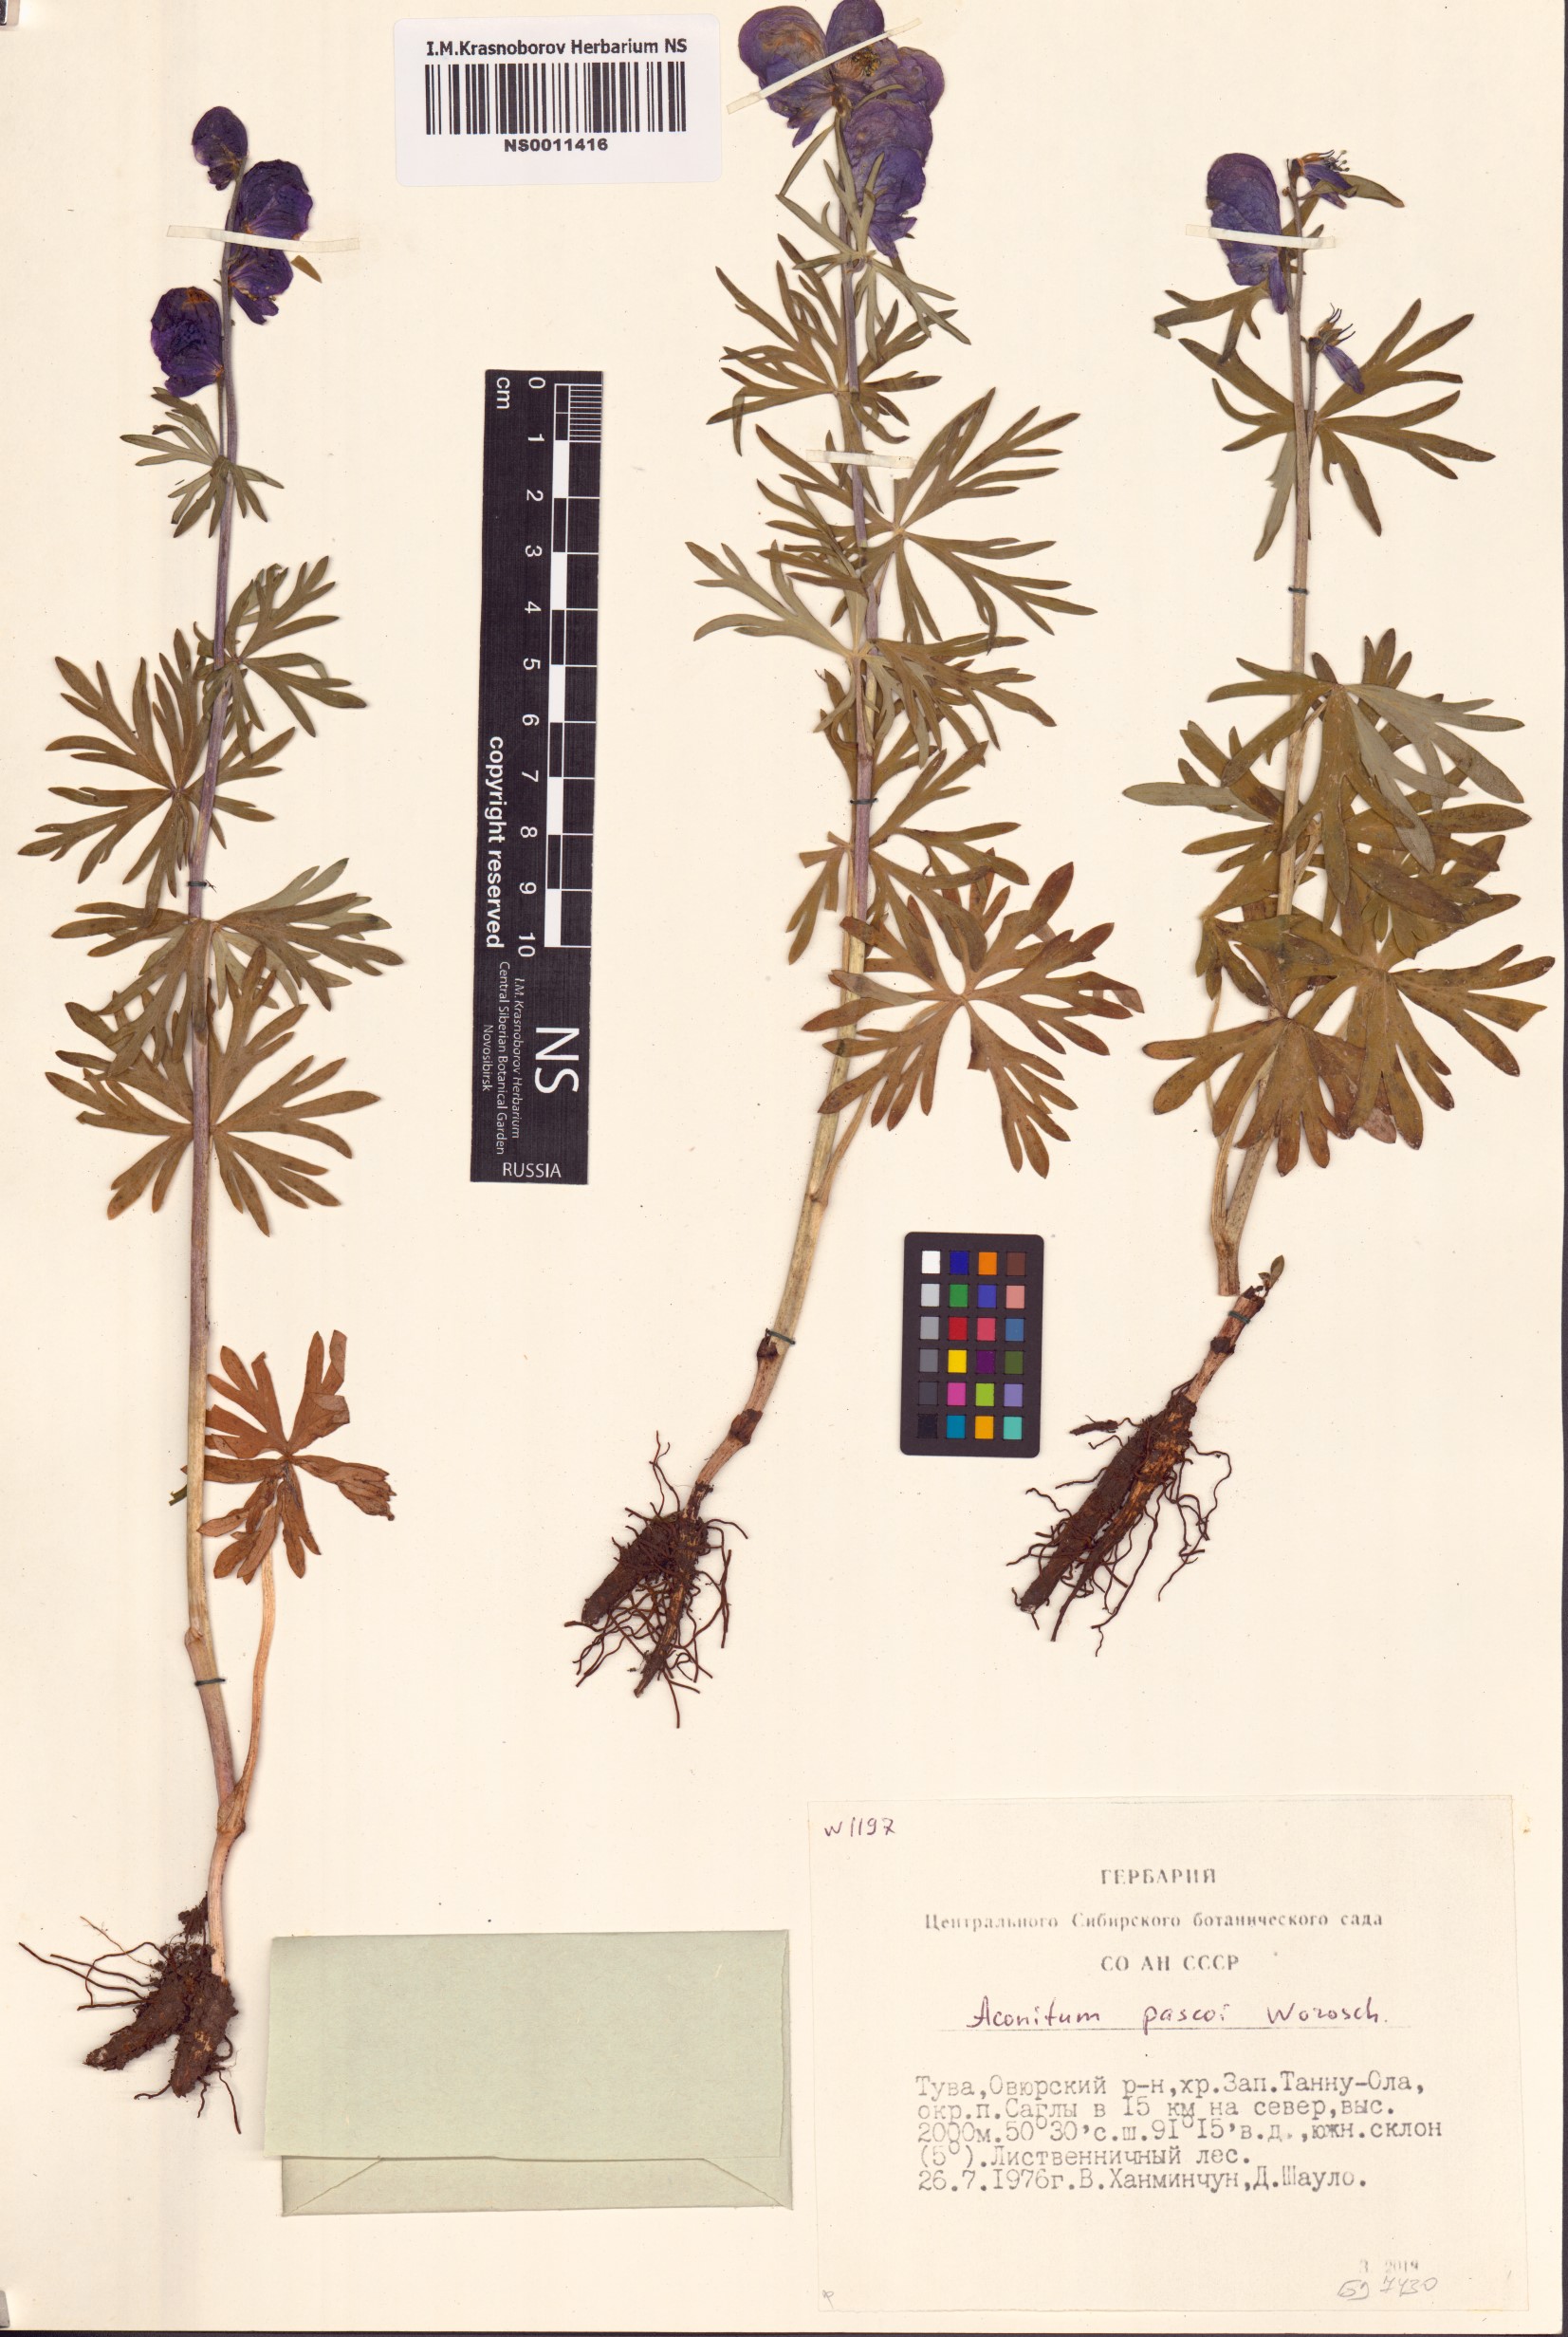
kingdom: Plantae
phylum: Tracheophyta
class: Magnoliopsida
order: Ranunculales
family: Ranunculaceae
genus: Aconitum
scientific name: Aconitum pascoi
